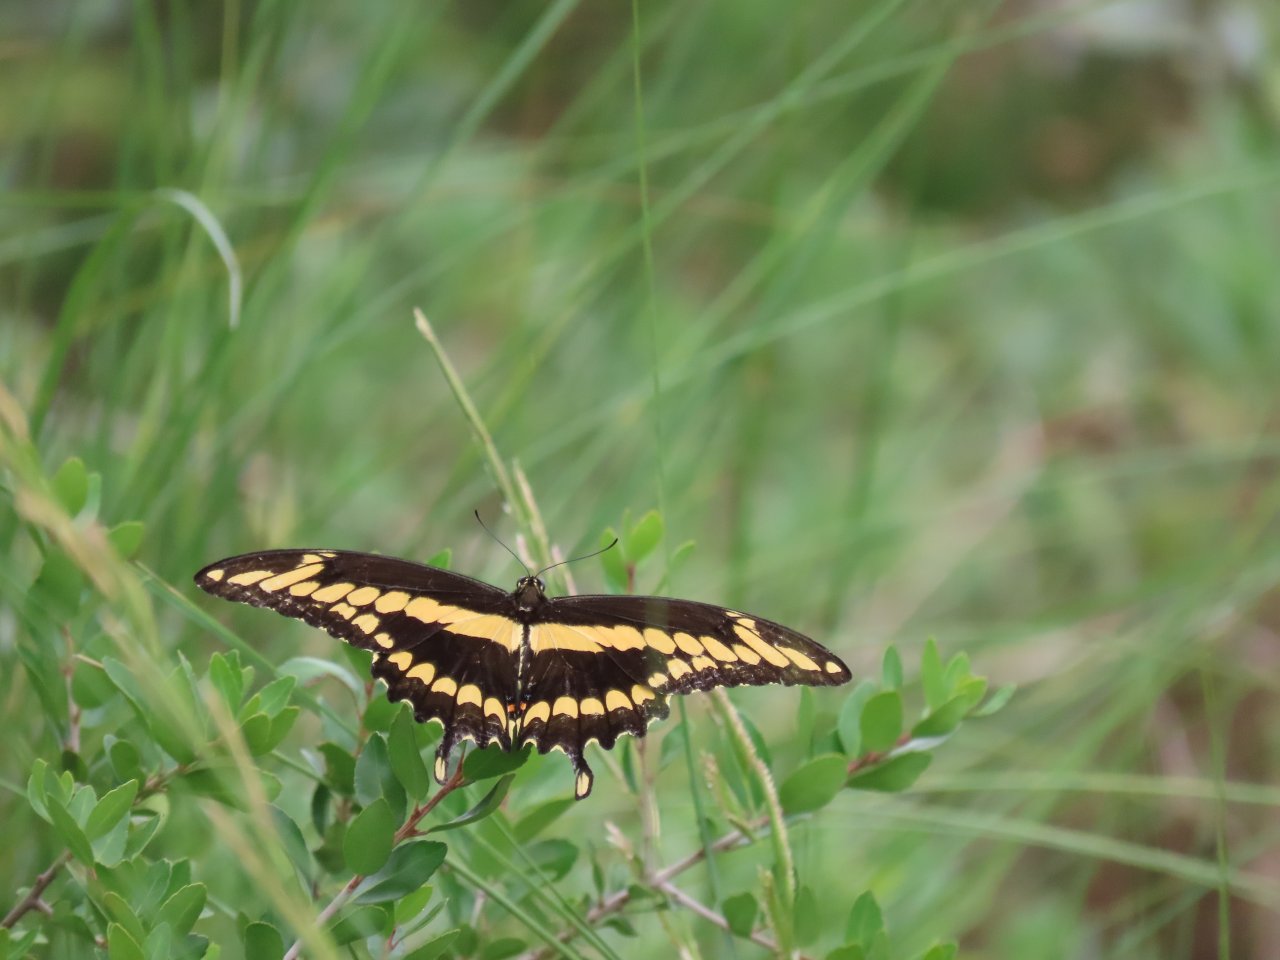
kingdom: Animalia
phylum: Arthropoda
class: Insecta
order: Lepidoptera
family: Papilionidae
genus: Papilio
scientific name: Papilio cresphontes
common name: Eastern Giant Swallowtail
